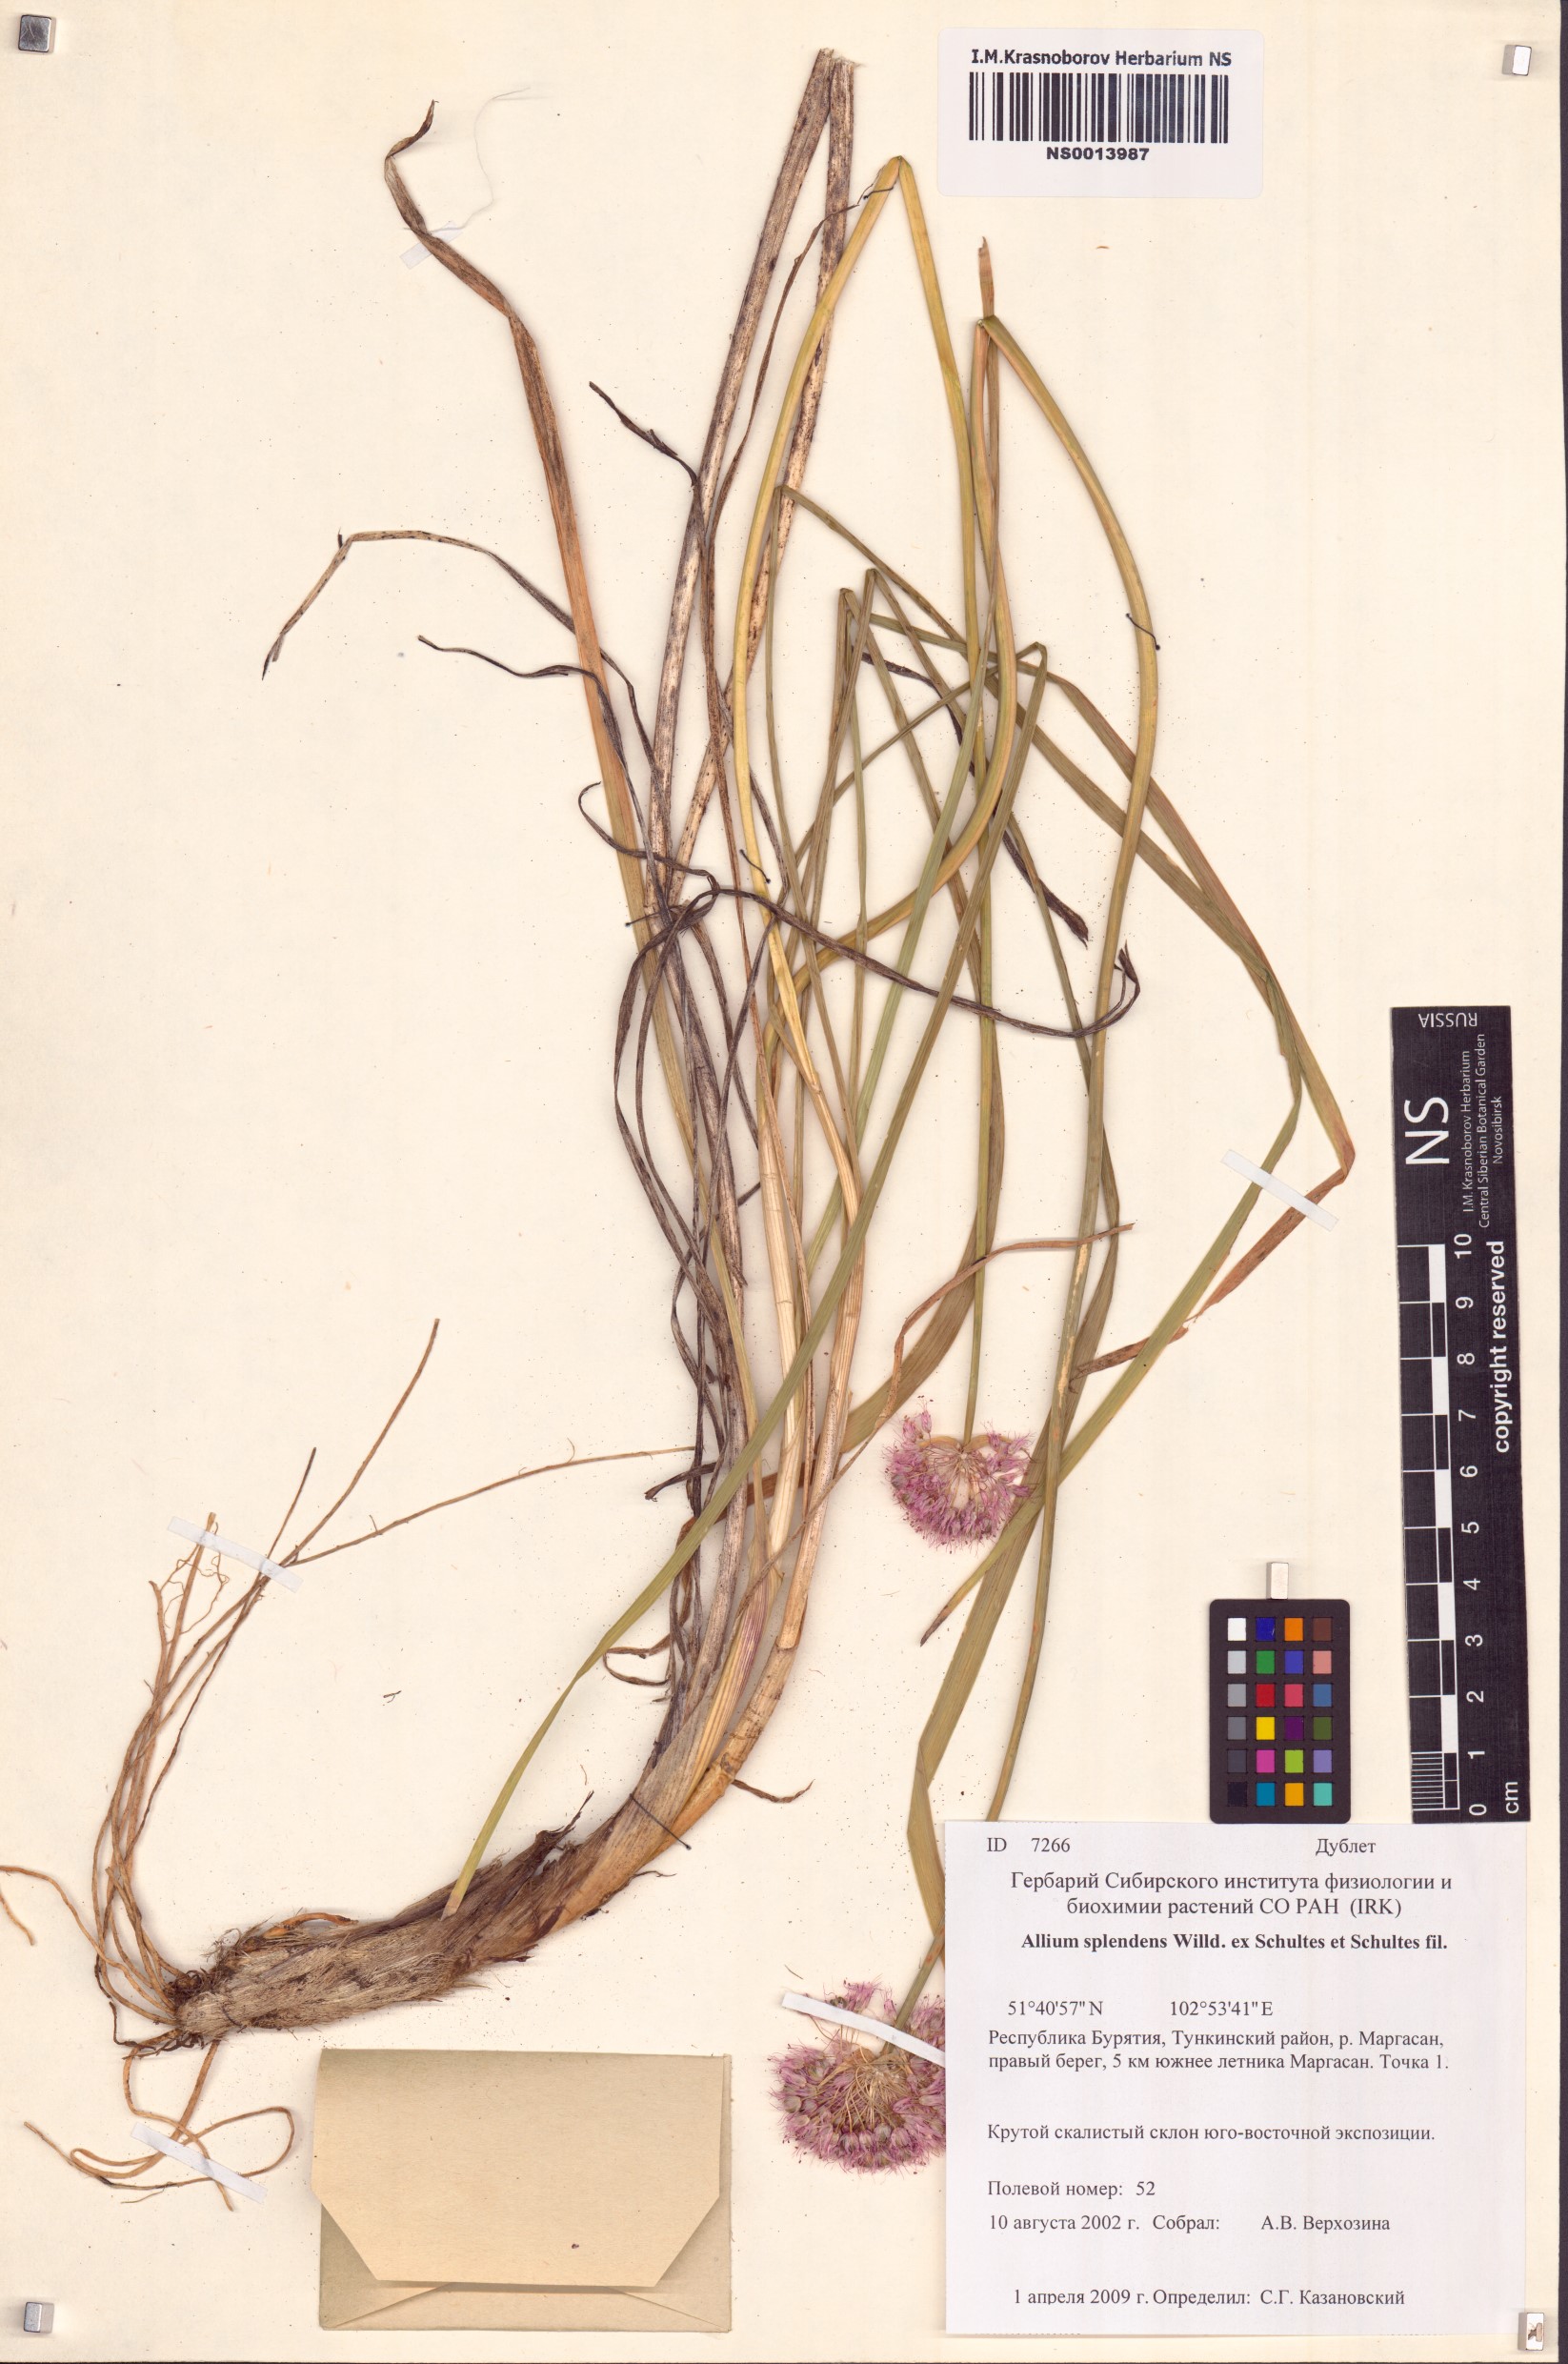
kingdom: Plantae
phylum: Tracheophyta
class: Liliopsida
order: Asparagales
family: Amaryllidaceae
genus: Allium
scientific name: Allium splendens
